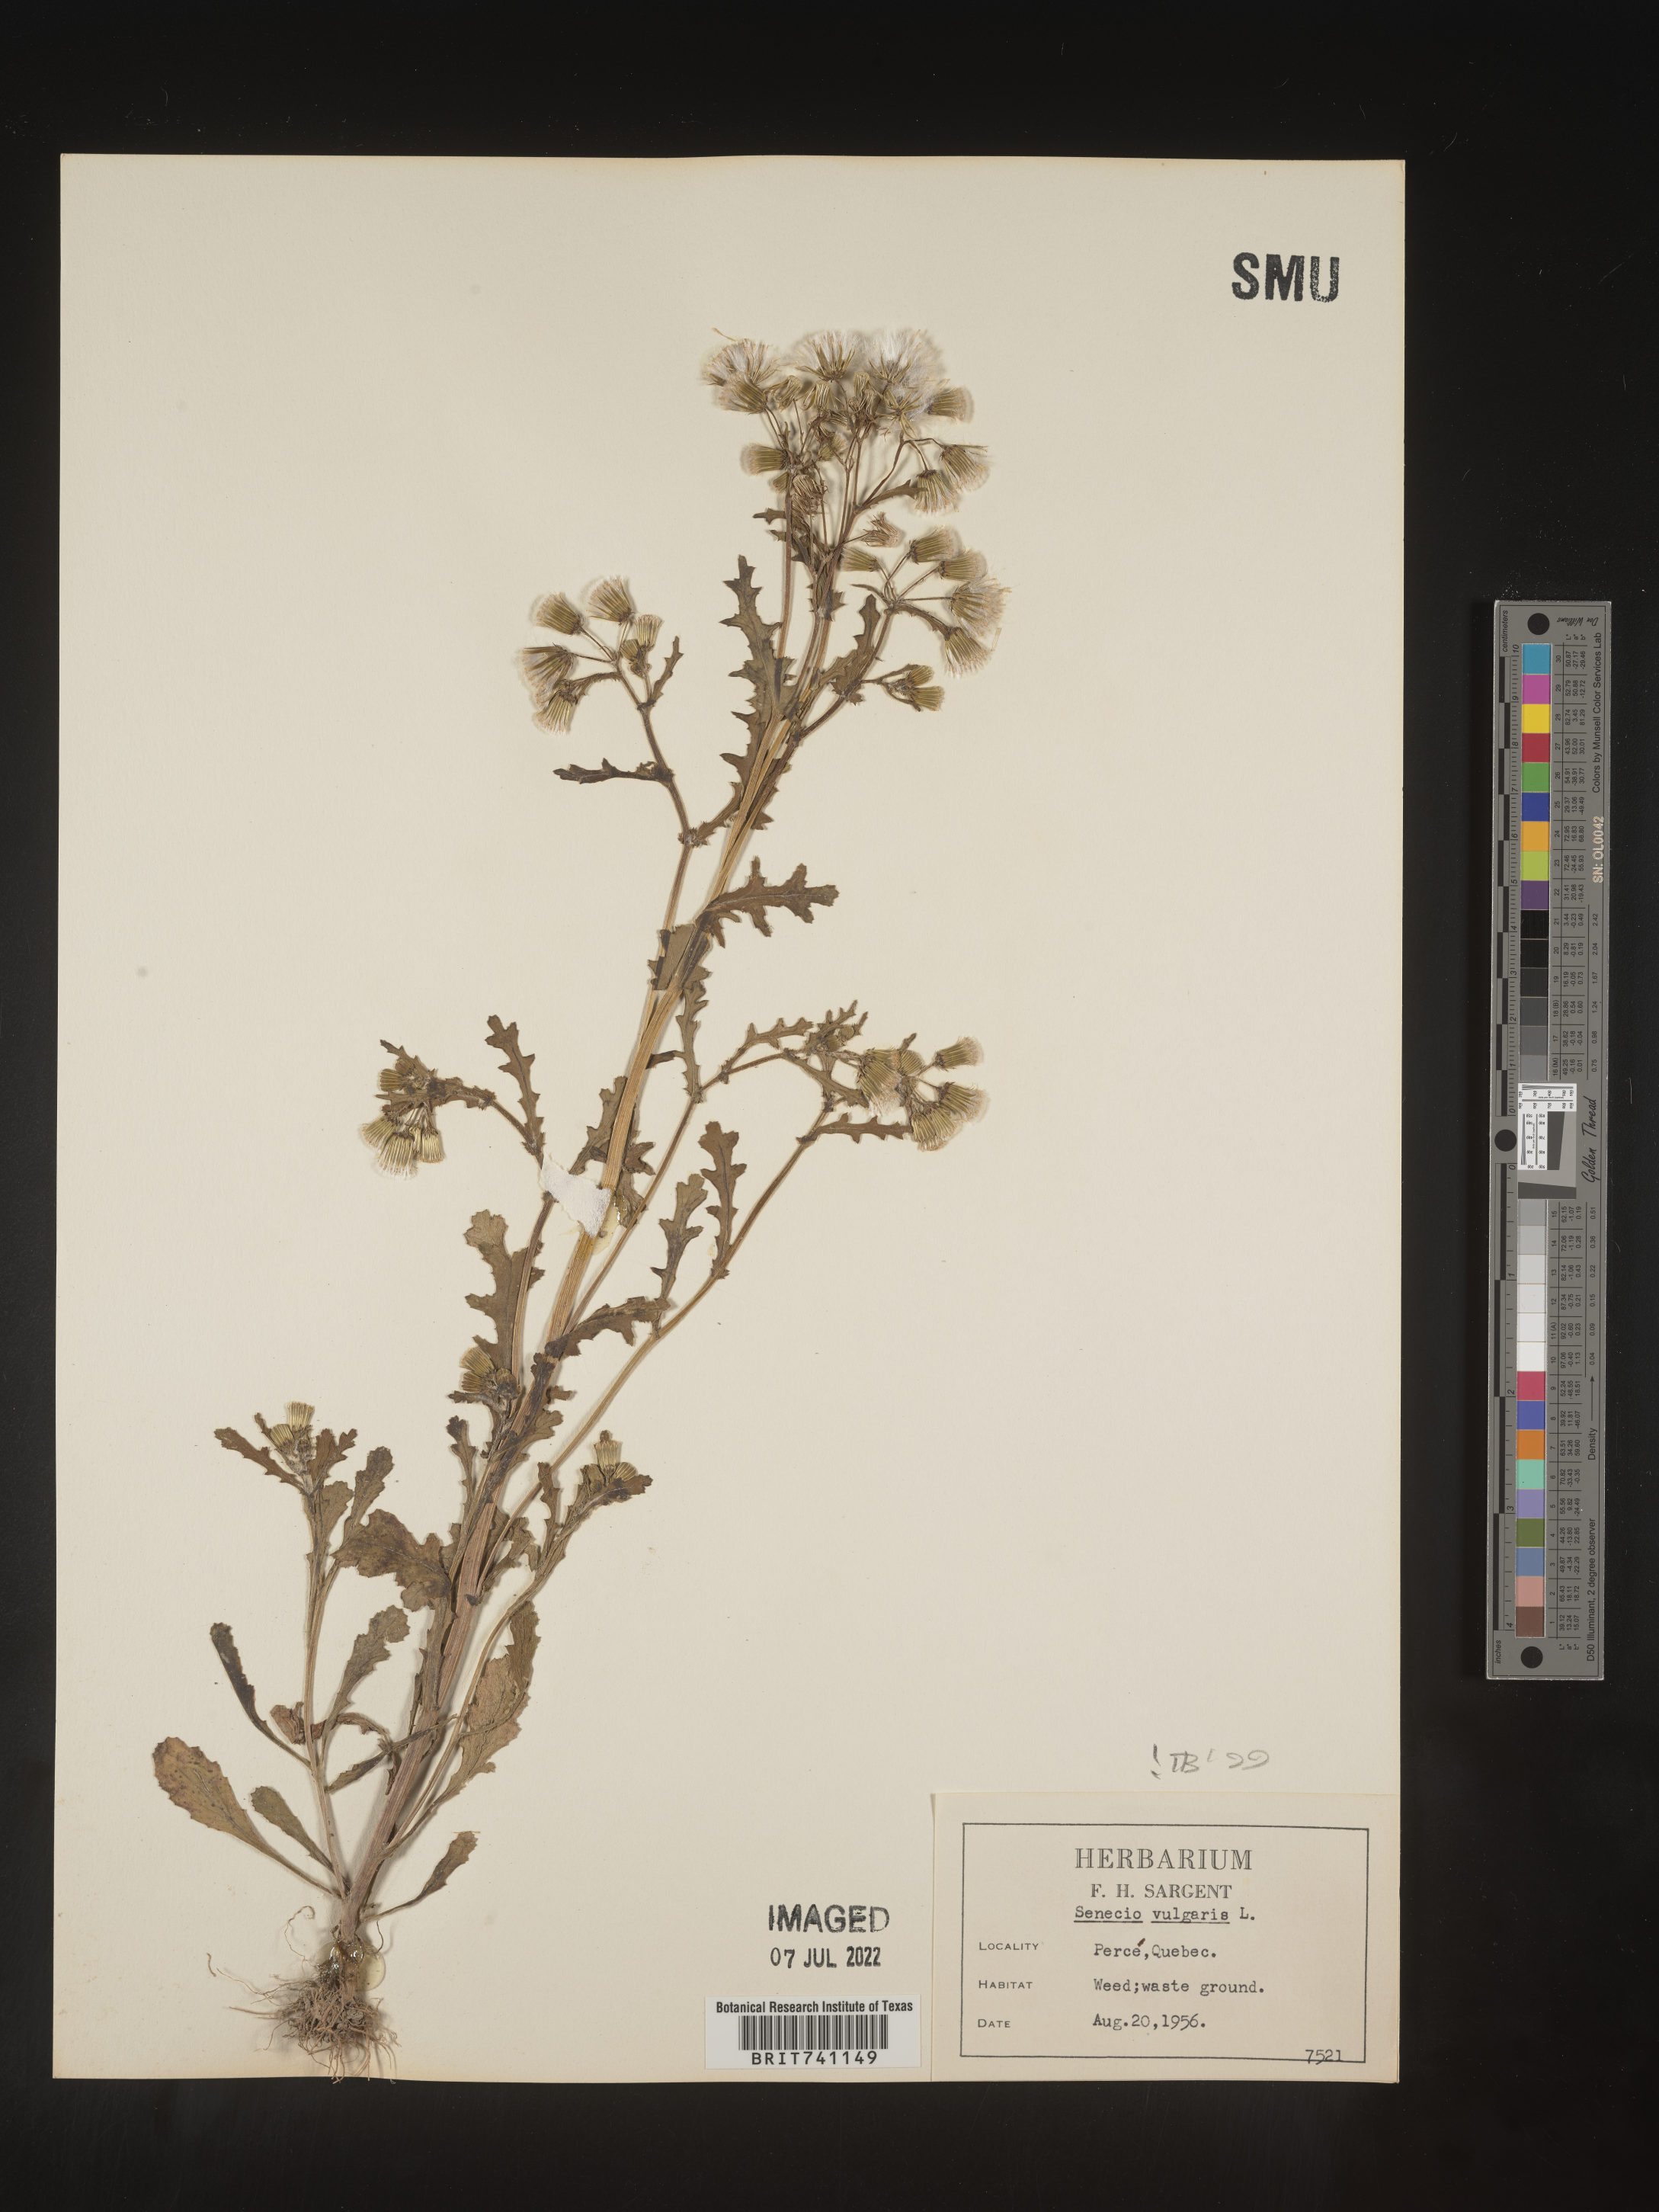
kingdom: Plantae
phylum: Tracheophyta
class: Magnoliopsida
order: Asterales
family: Asteraceae
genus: Senecio
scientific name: Senecio vulgaris
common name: Old-man-in-the-spring
